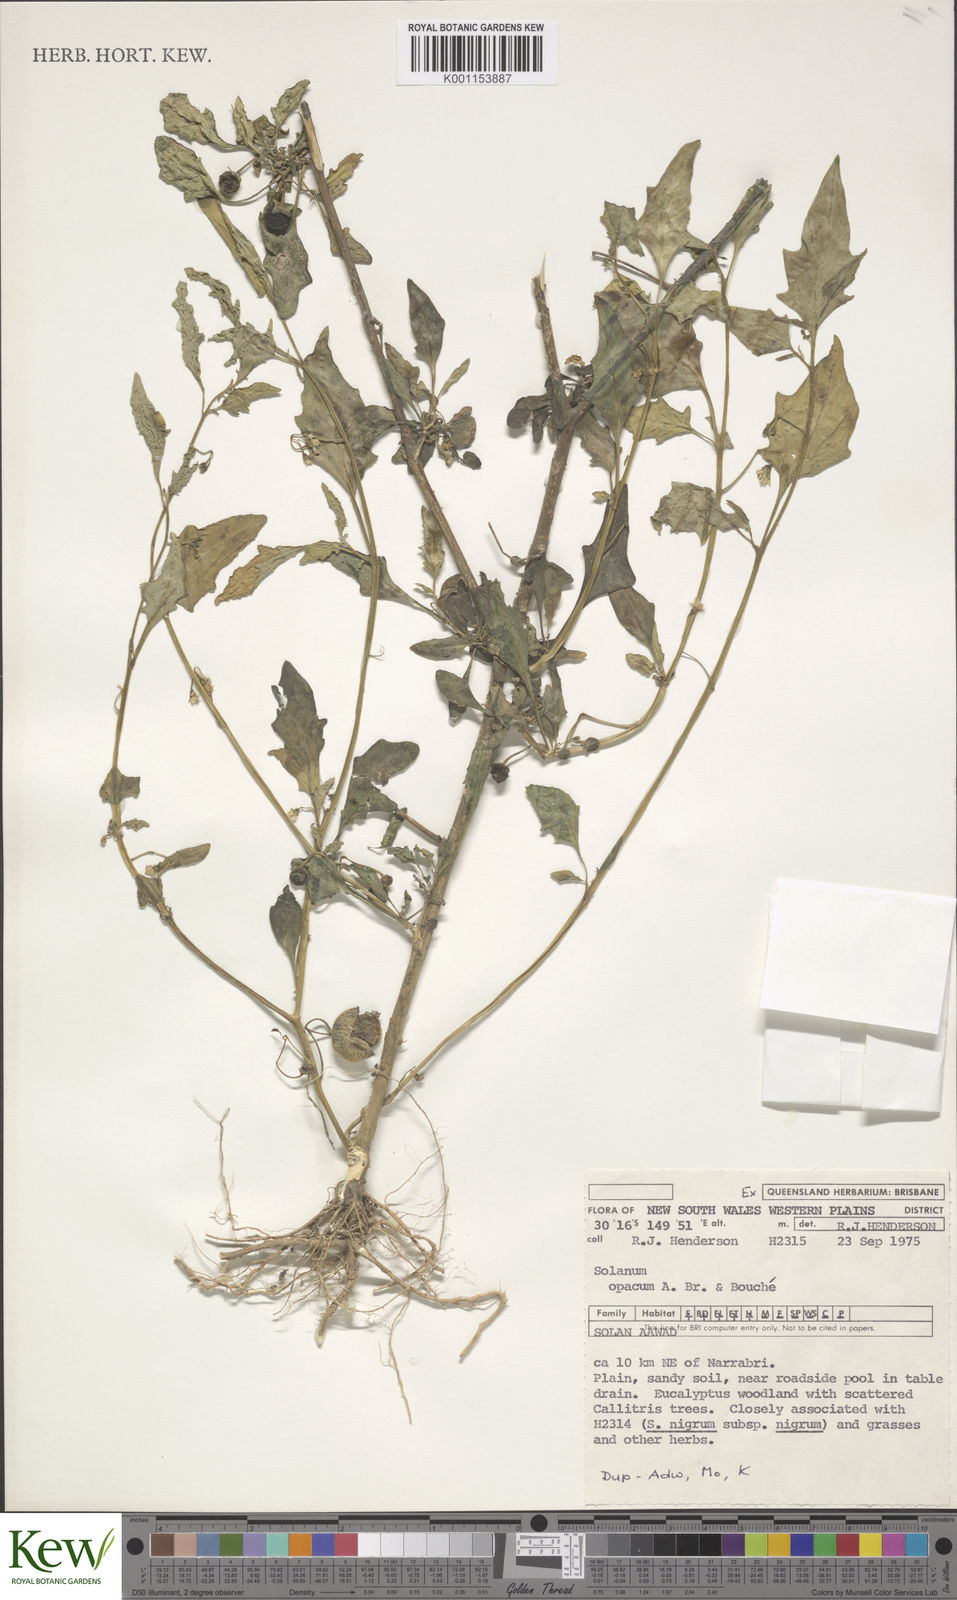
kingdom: Plantae
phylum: Tracheophyta
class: Magnoliopsida
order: Solanales
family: Solanaceae
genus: Solanum
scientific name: Solanum
